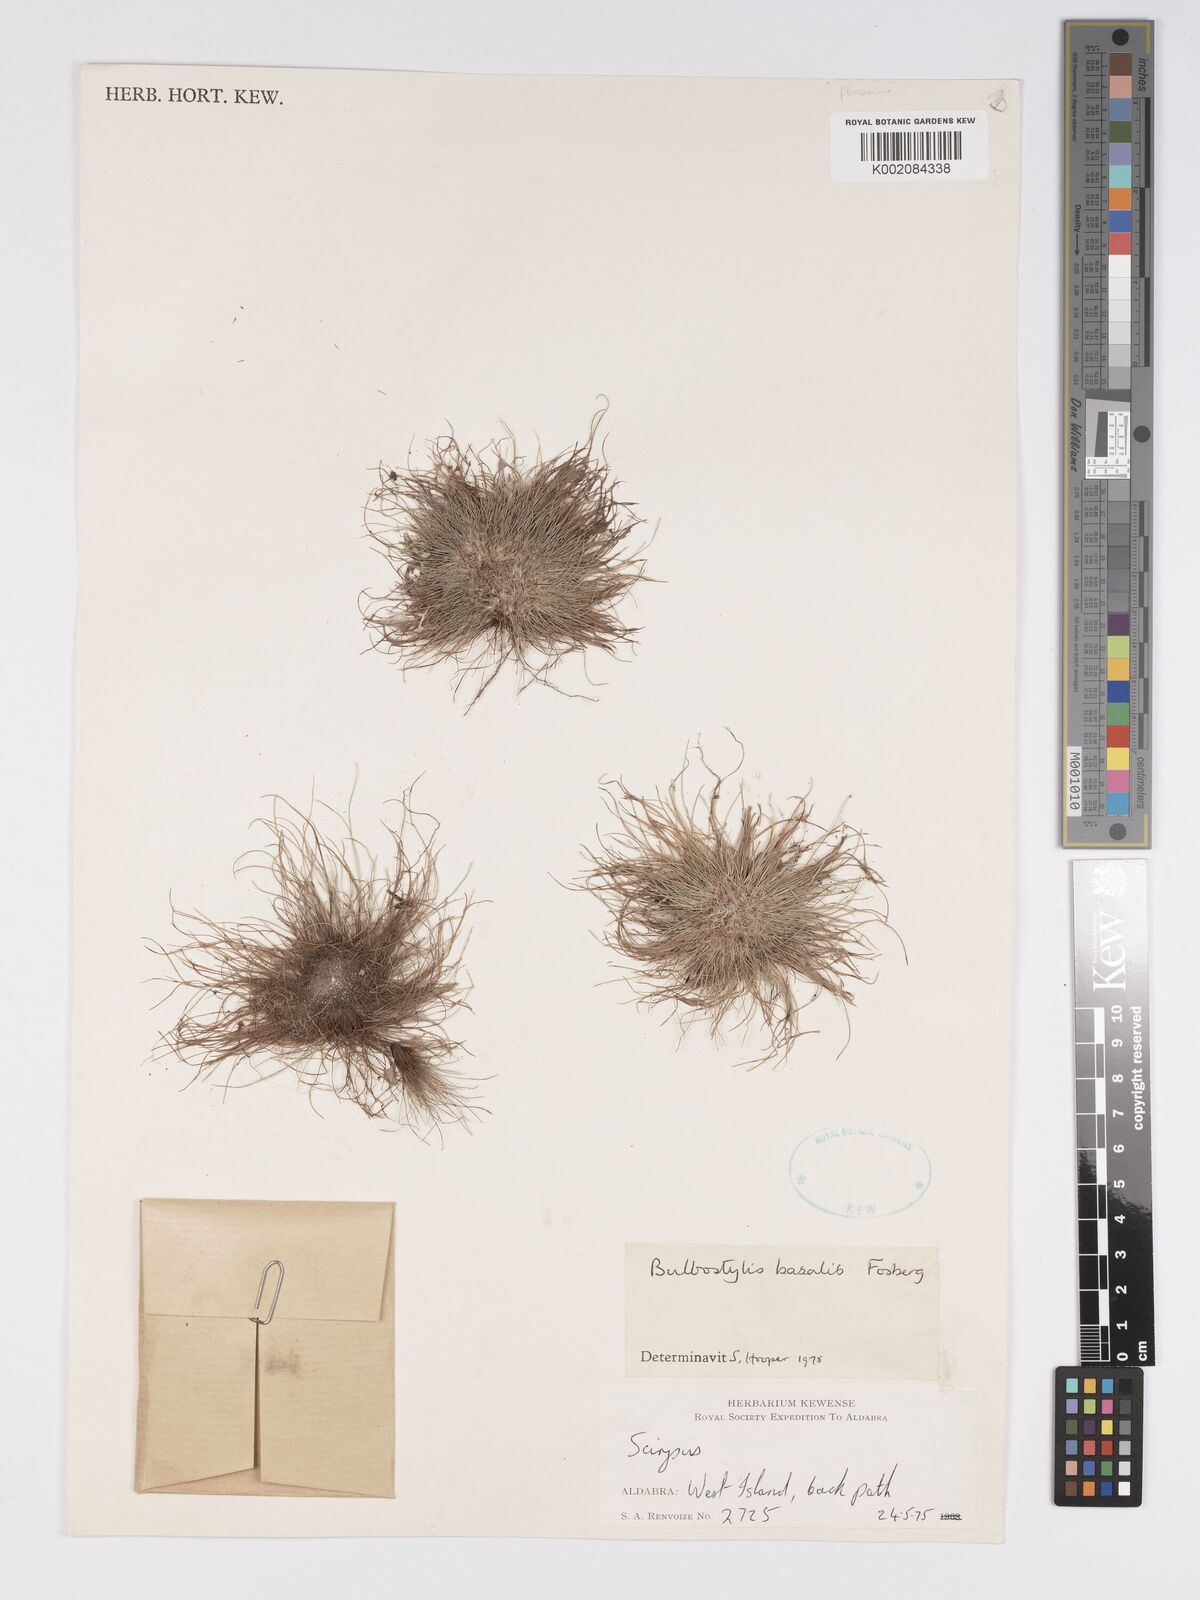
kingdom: Plantae
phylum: Tracheophyta
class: Liliopsida
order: Poales
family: Cyperaceae
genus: Bulbostylis
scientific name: Bulbostylis basalis
